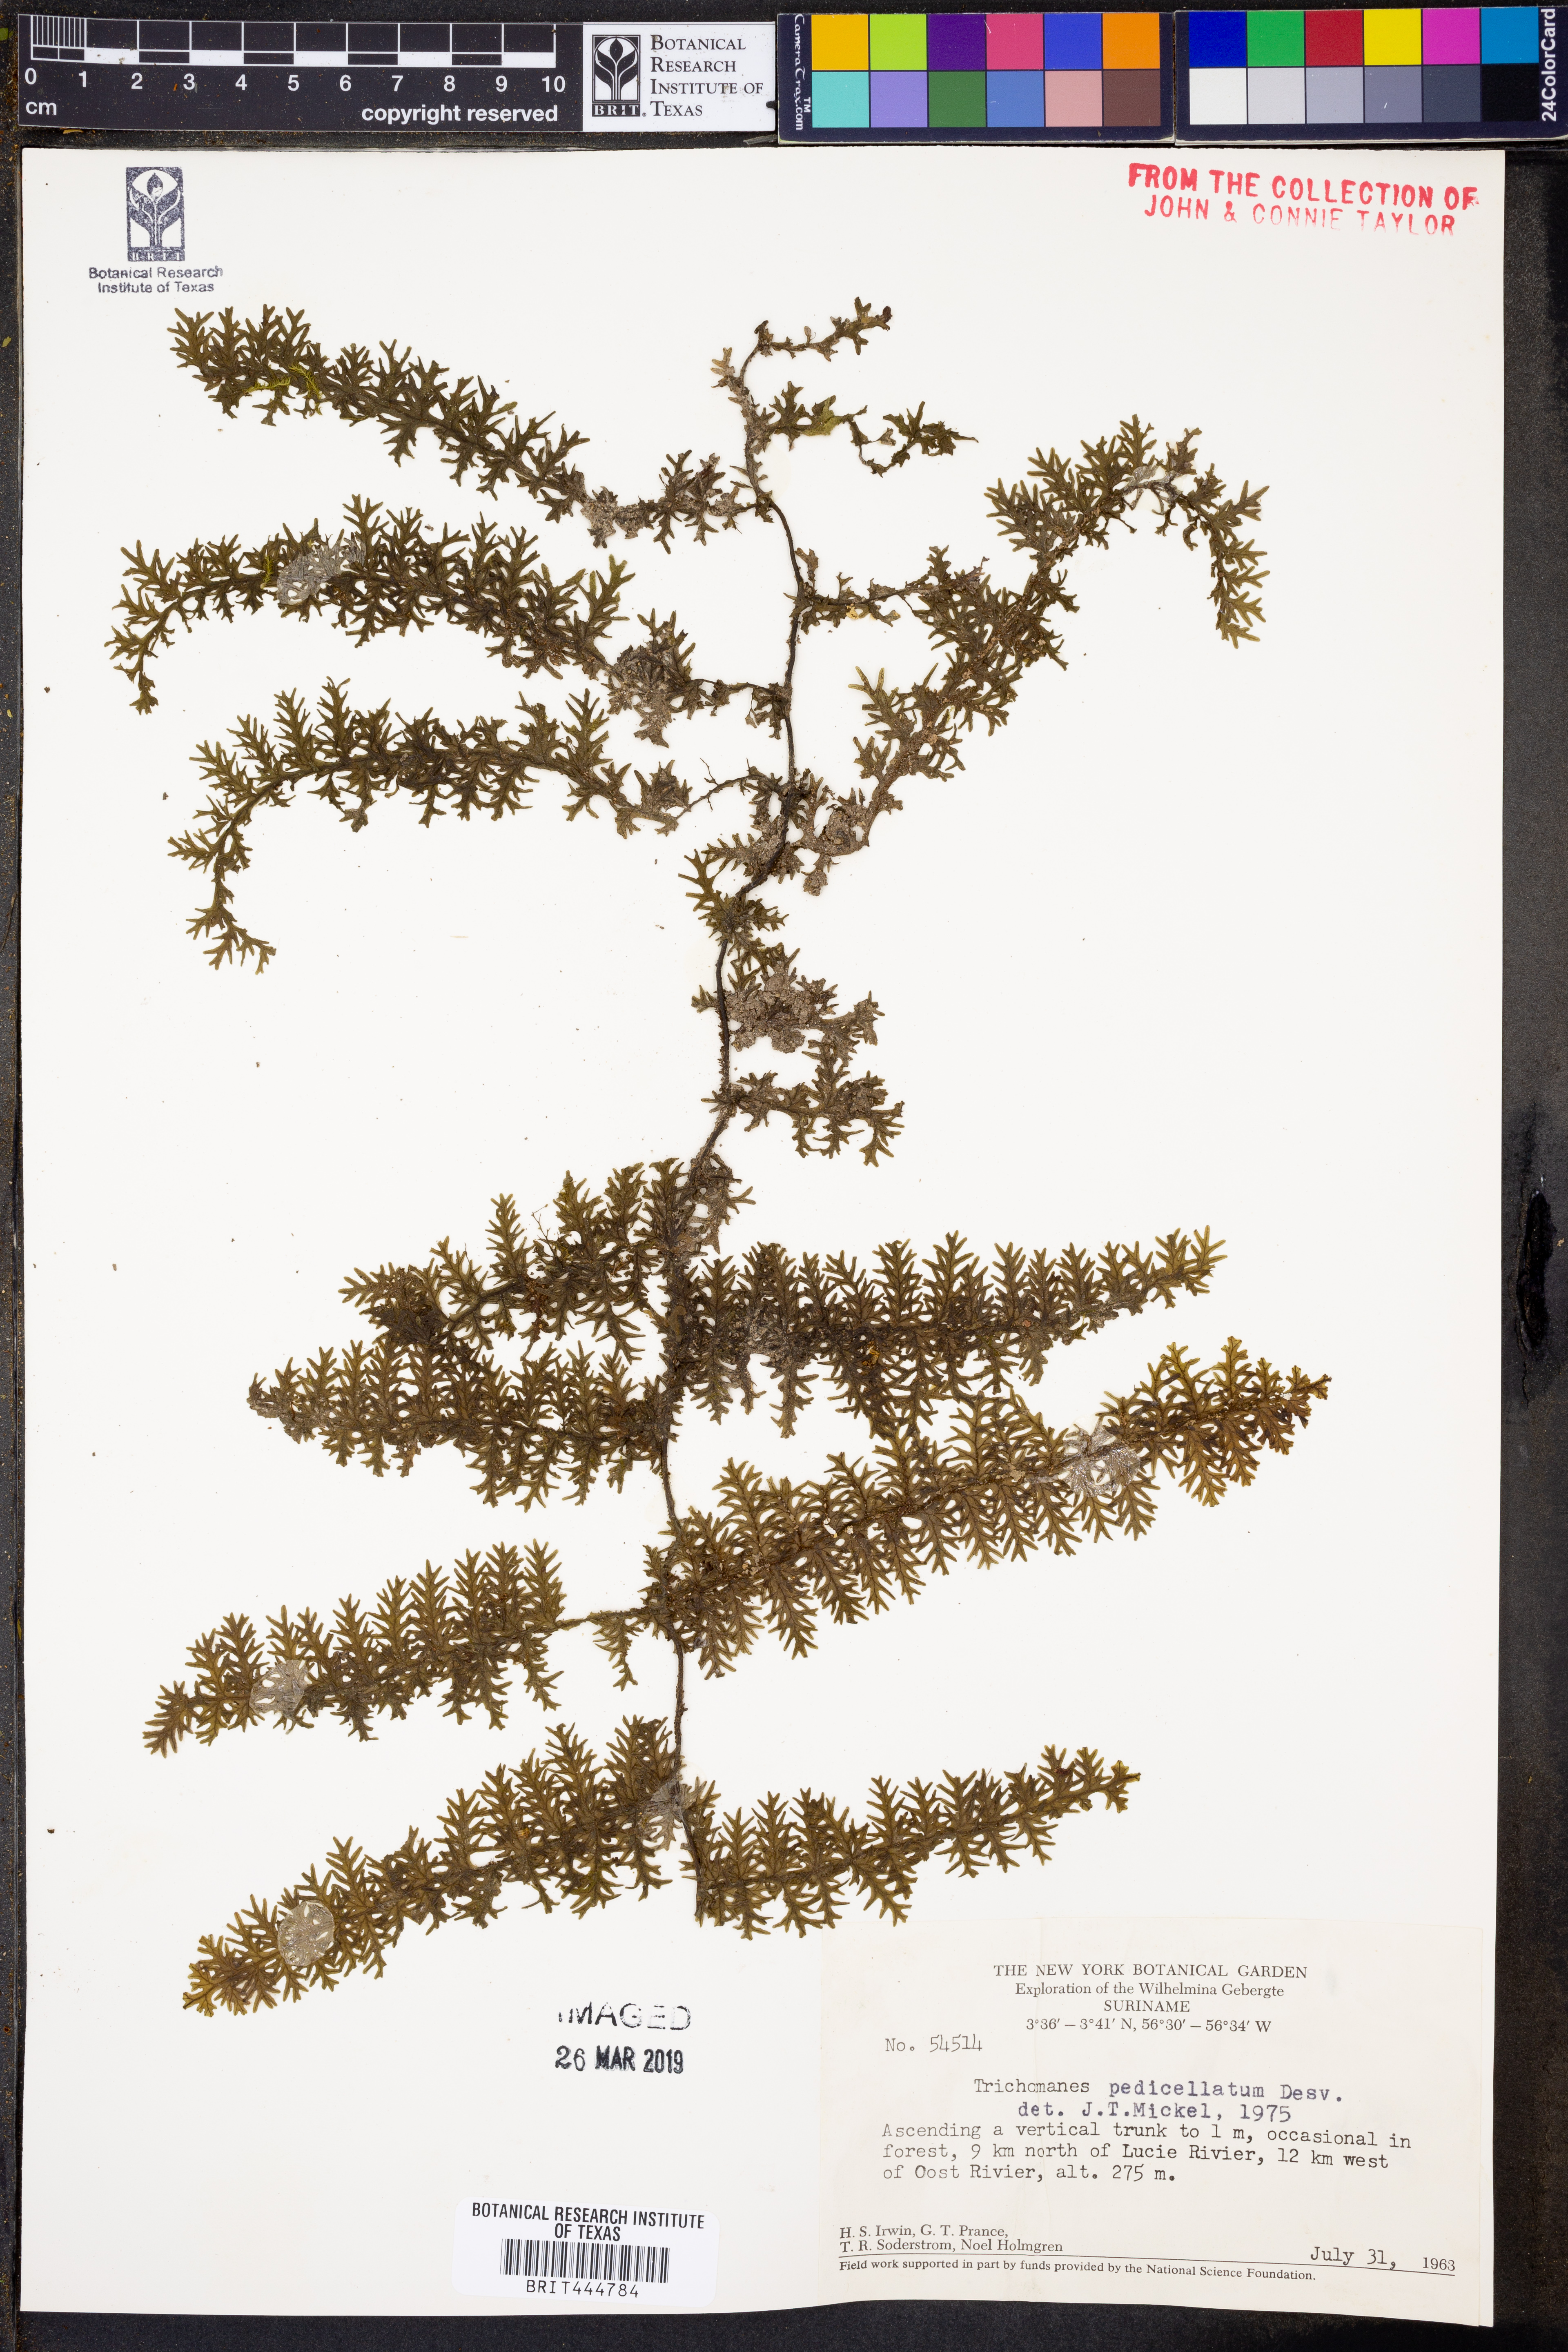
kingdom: Plantae
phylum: Tracheophyta
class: Polypodiopsida
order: Hymenophyllales
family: Hymenophyllaceae
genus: Trichomanes
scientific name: Trichomanes pedicellatum
